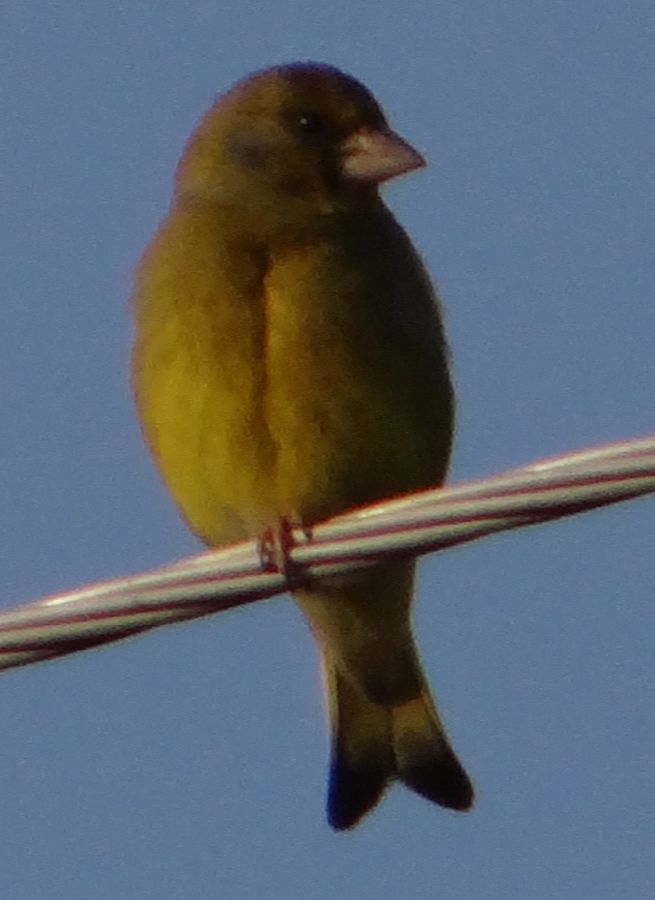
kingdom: Plantae
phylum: Tracheophyta
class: Liliopsida
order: Poales
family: Poaceae
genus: Chloris
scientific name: Chloris chloris
